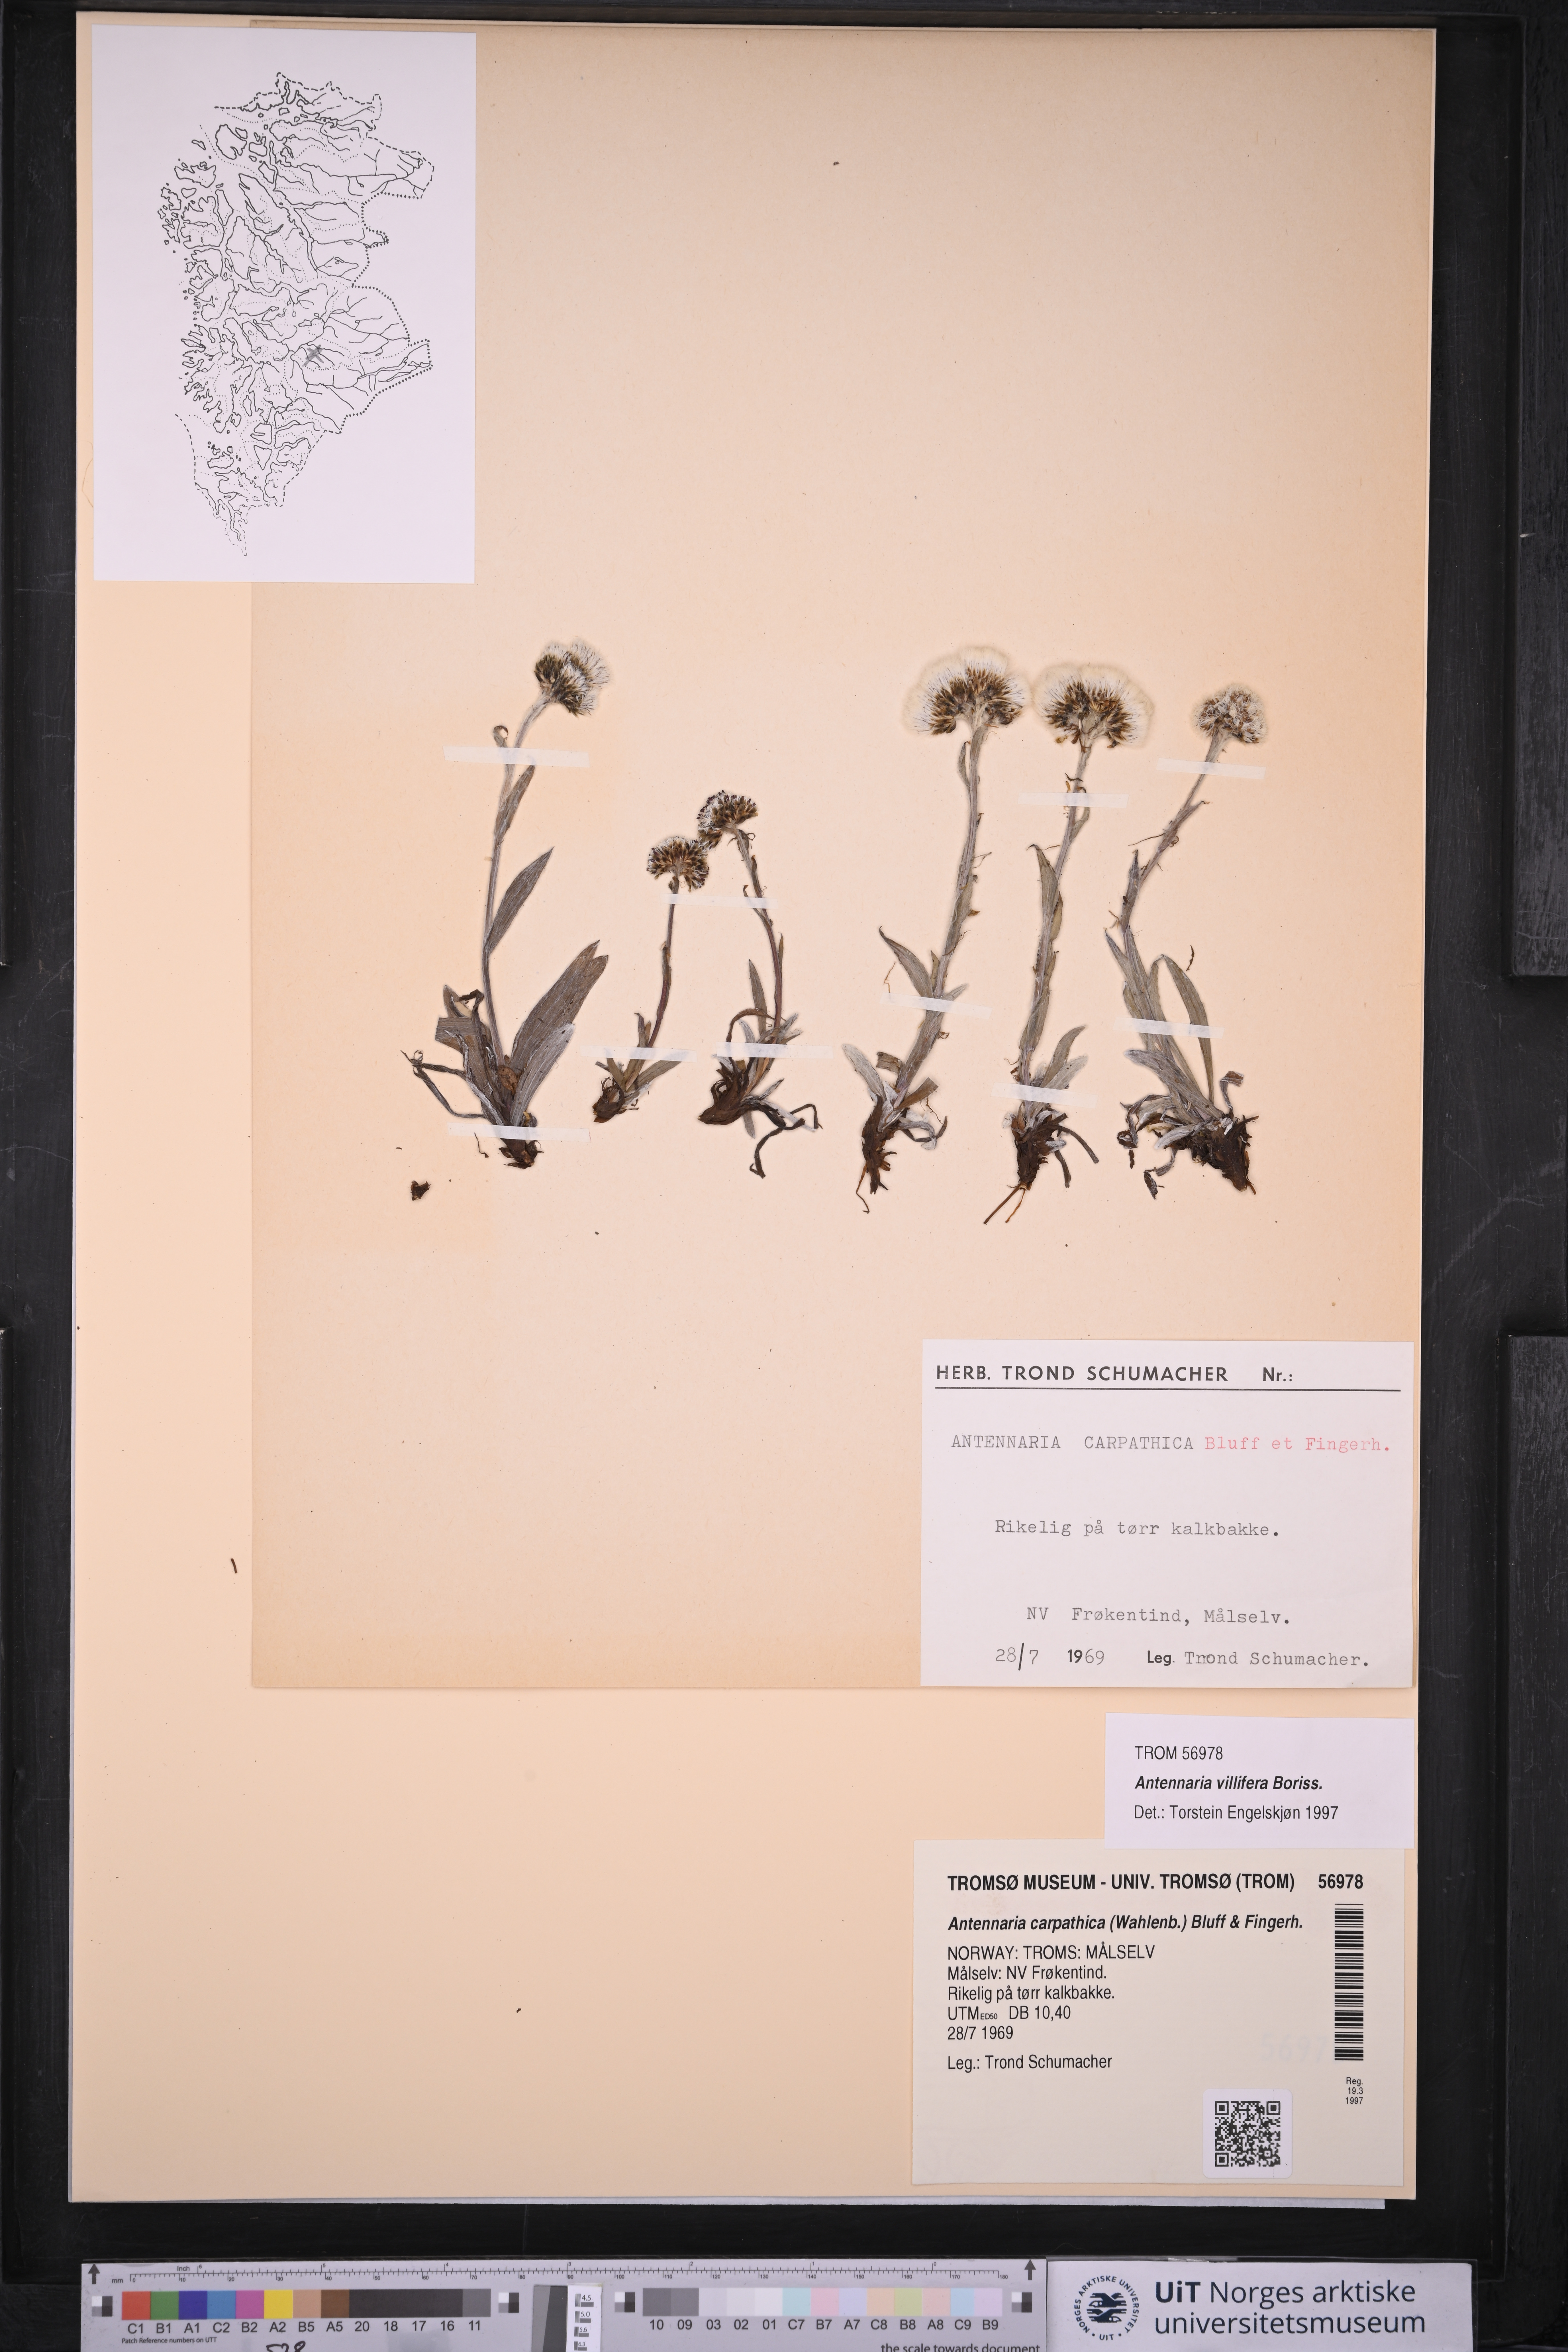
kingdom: Plantae
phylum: Tracheophyta
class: Magnoliopsida
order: Asterales
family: Asteraceae
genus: Antennaria
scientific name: Antennaria lanata
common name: Woolly pussytoes
